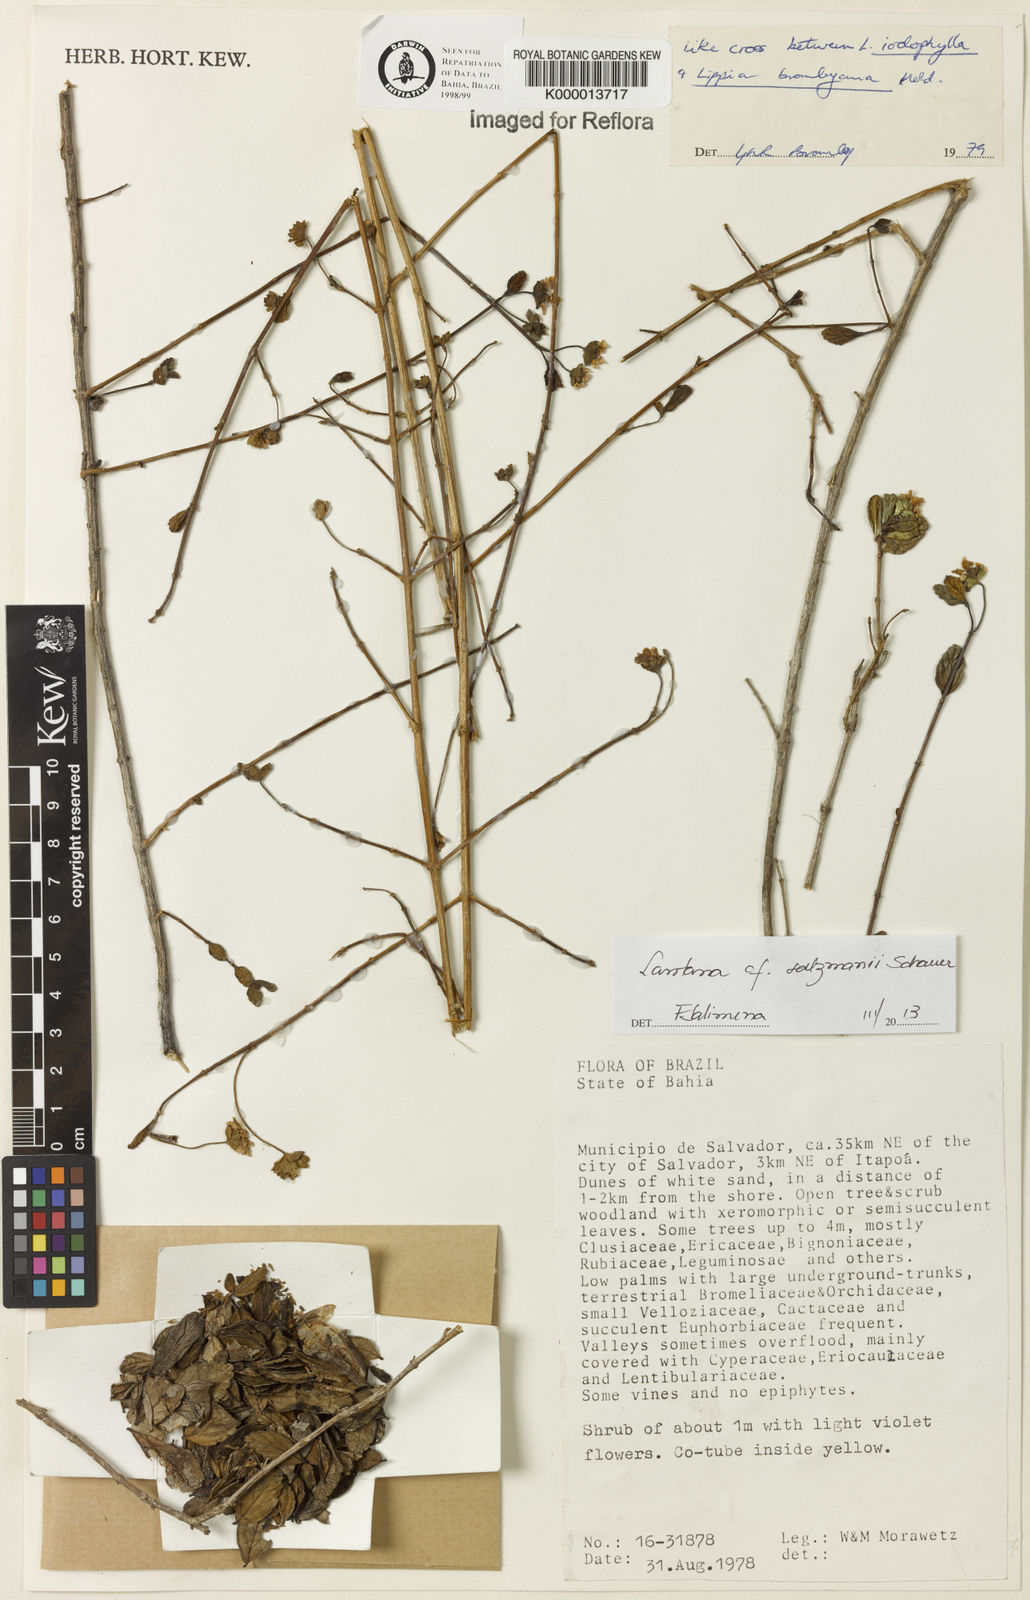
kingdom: Plantae
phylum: Tracheophyta
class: Magnoliopsida
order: Lamiales
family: Verbenaceae
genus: Lippia
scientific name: Lippia bromleyana
